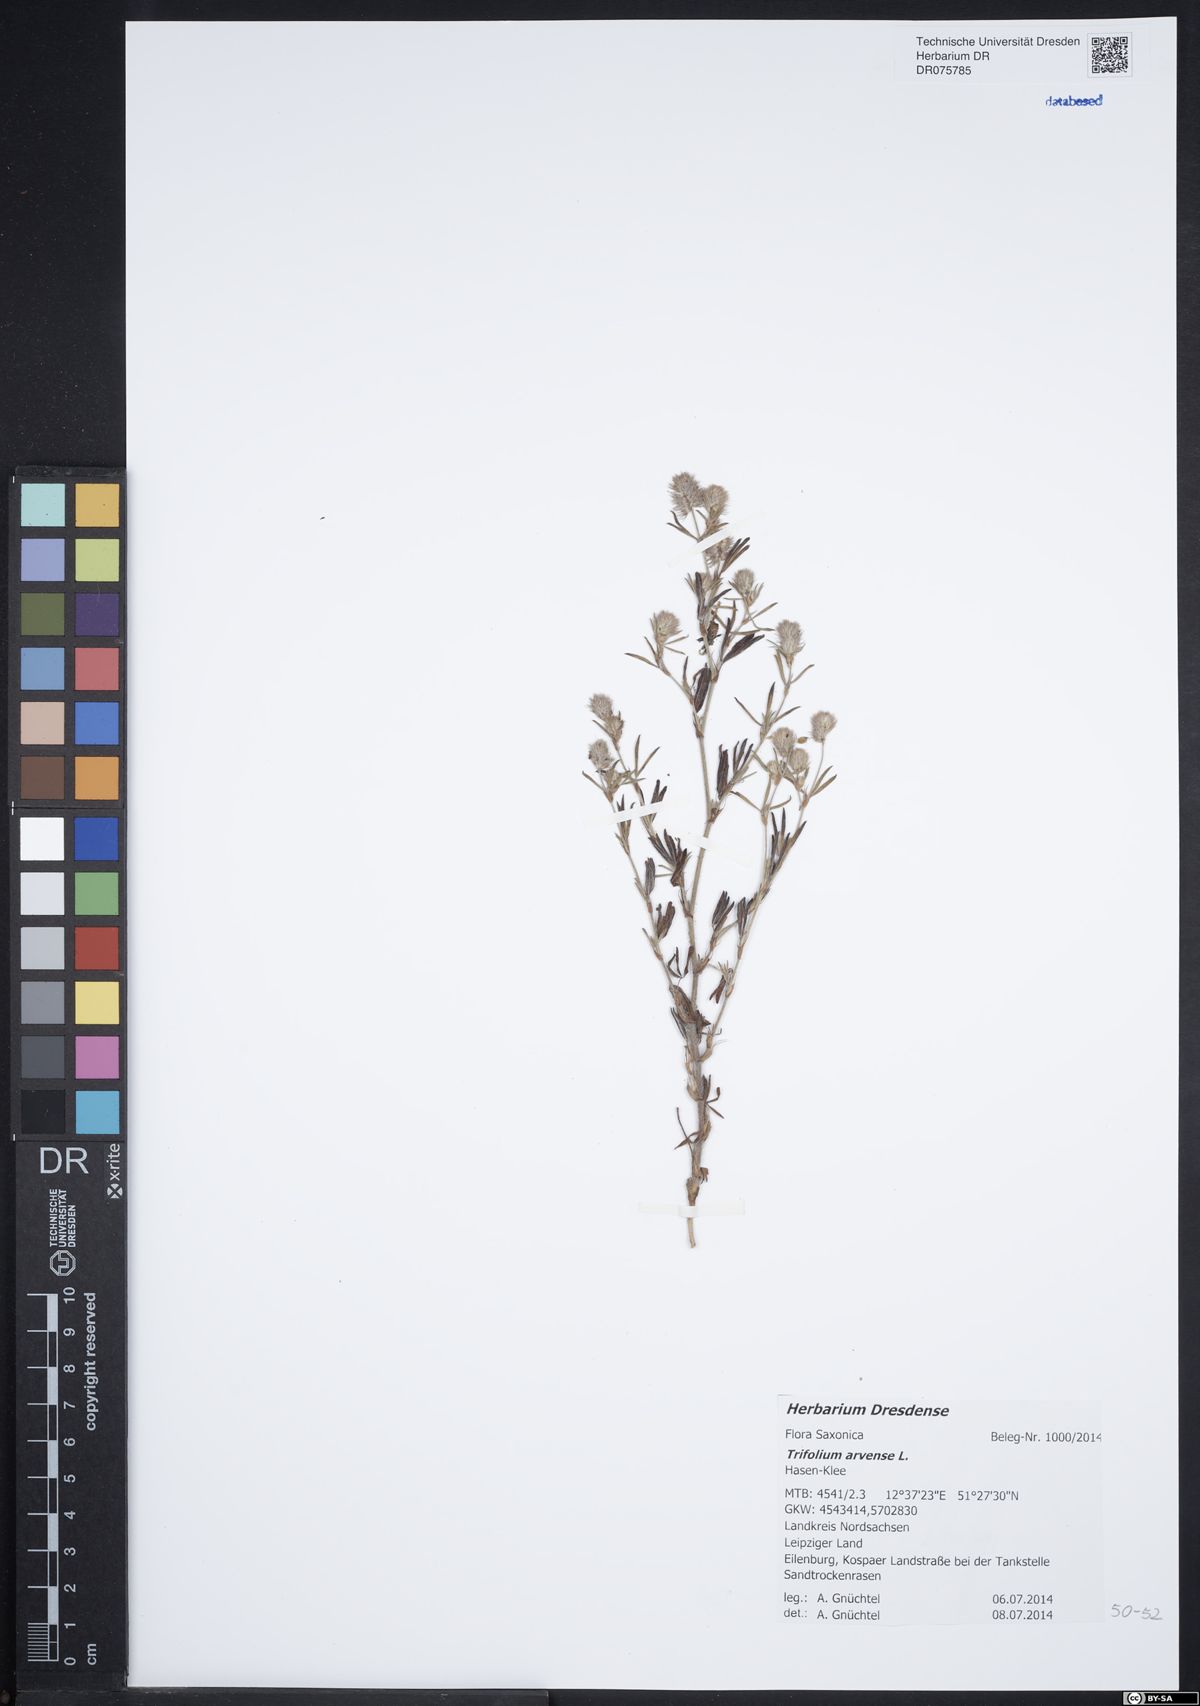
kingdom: Plantae
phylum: Tracheophyta
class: Magnoliopsida
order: Fabales
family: Fabaceae
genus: Trifolium
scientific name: Trifolium arvense
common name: Hare's-foot clover
